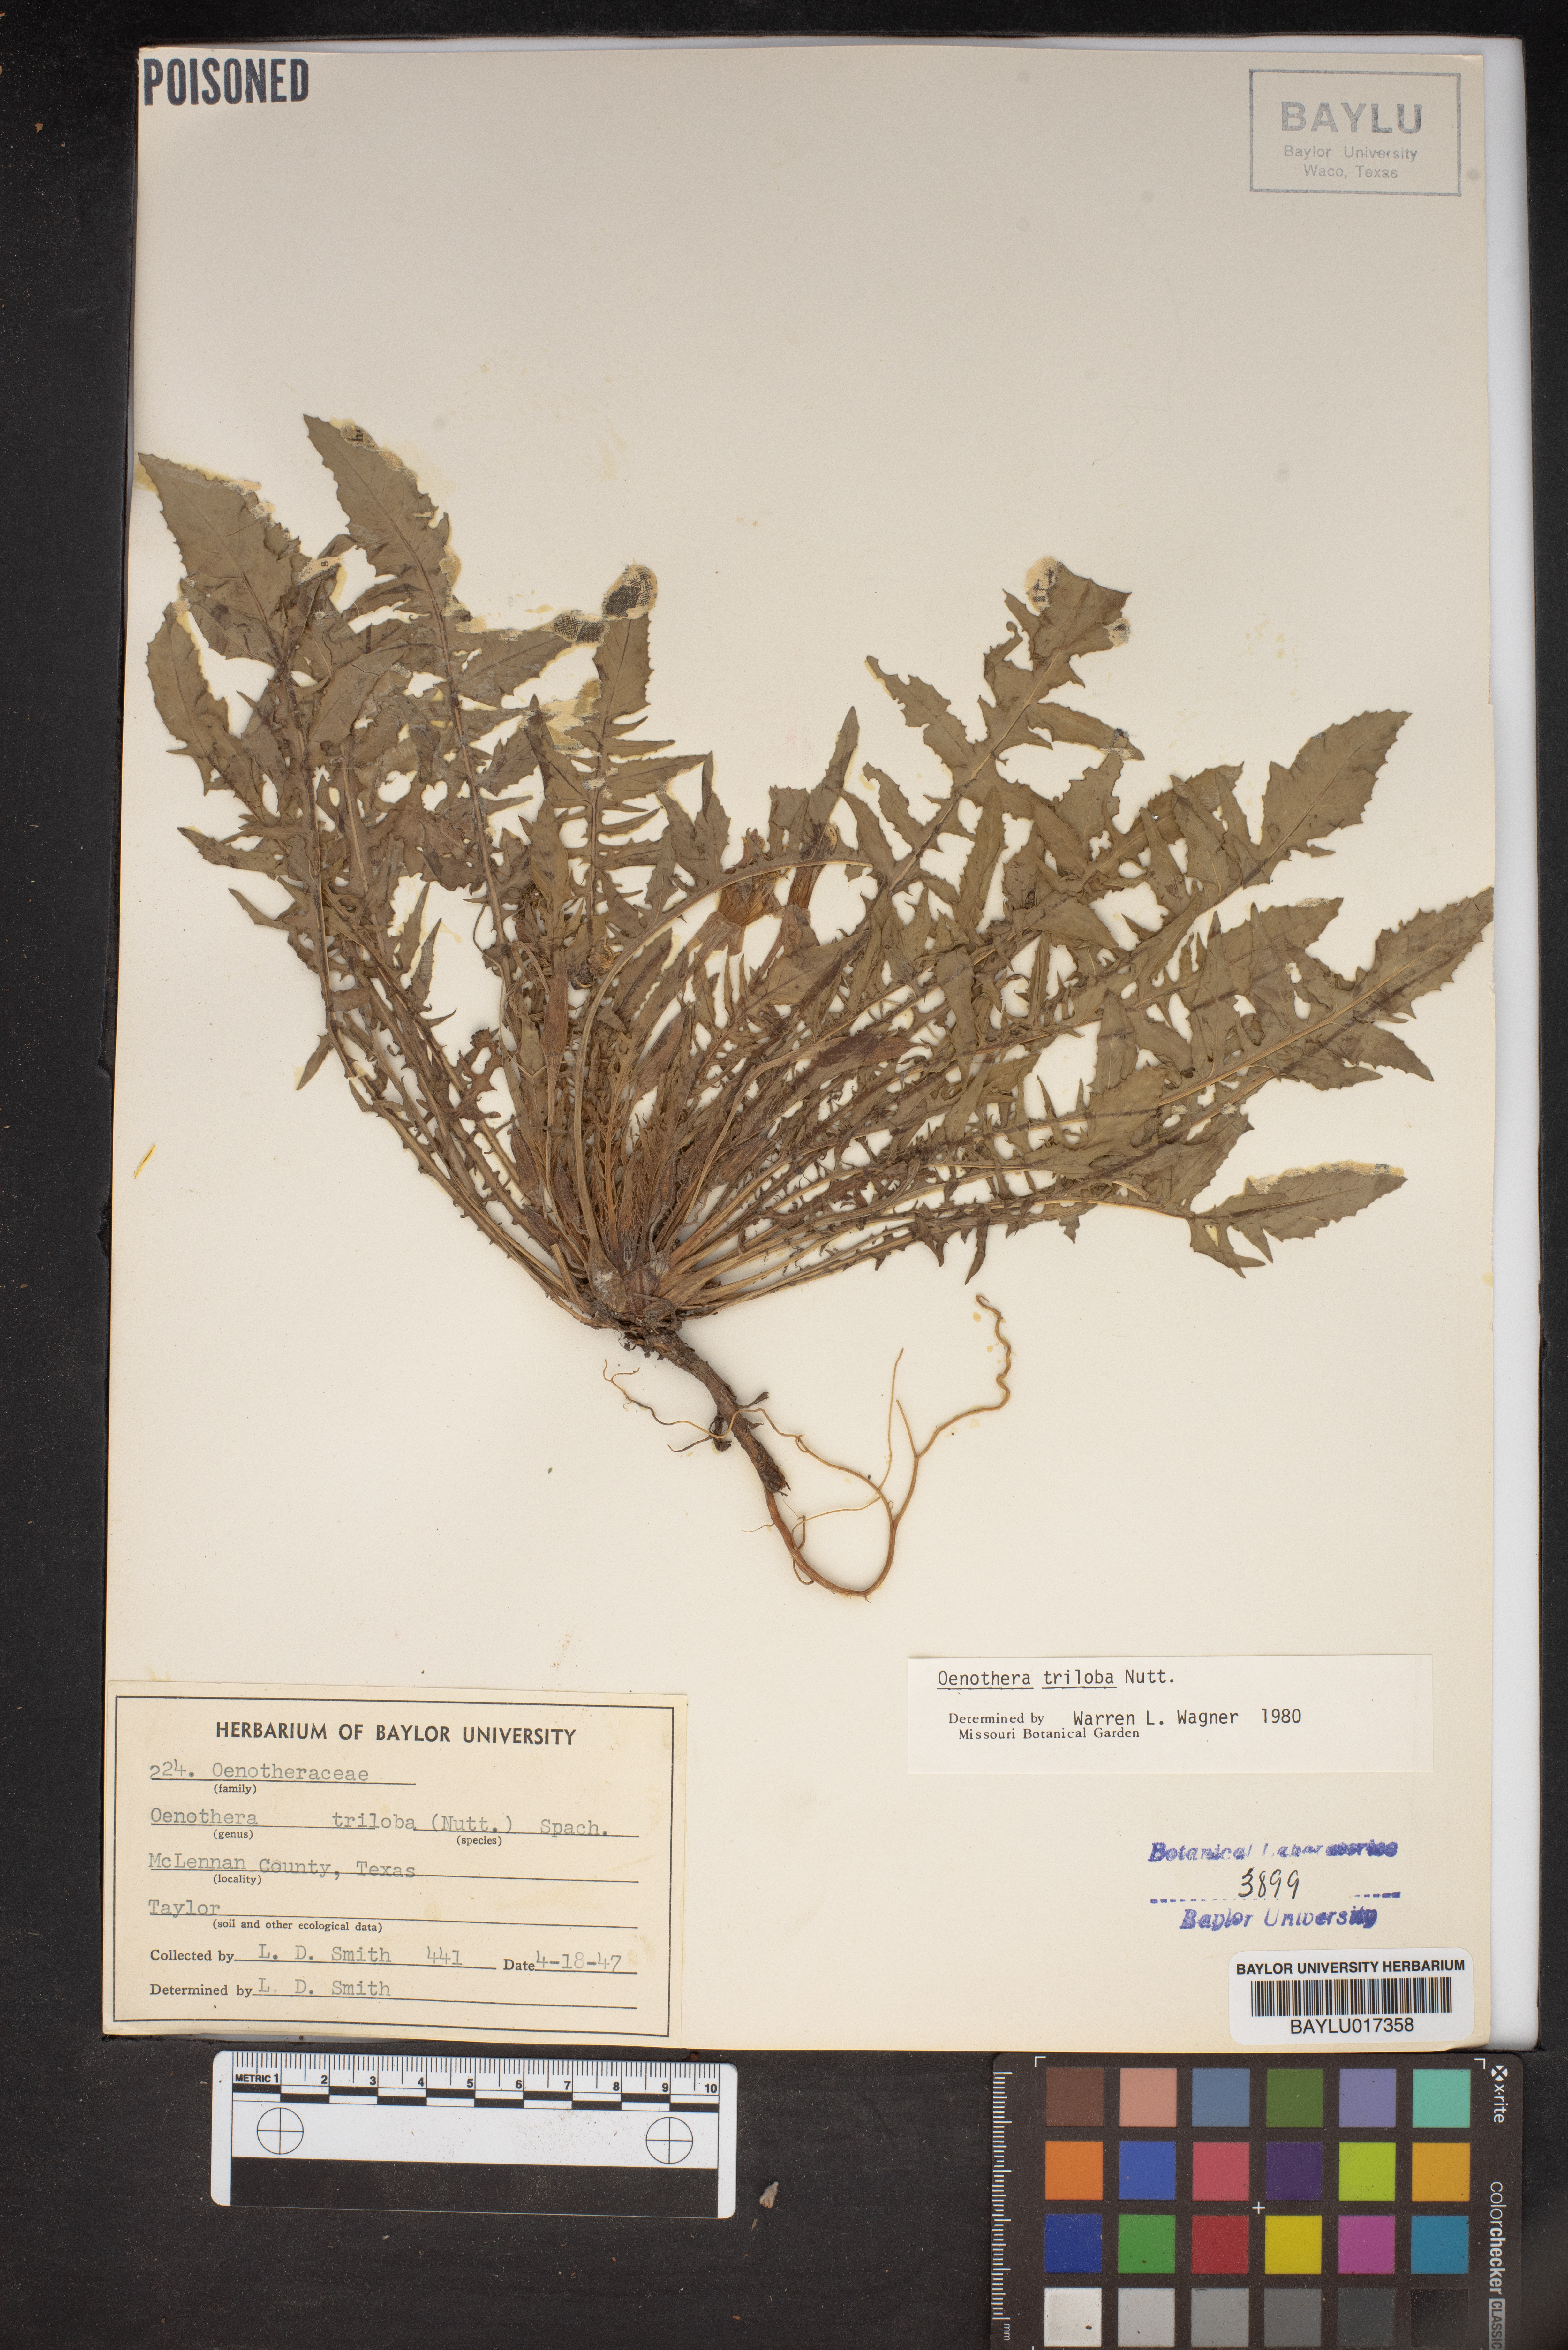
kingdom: Plantae
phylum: Tracheophyta
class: Magnoliopsida
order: Myrtales
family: Onagraceae
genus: Oenothera
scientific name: Oenothera triloba
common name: Sessile evening-primrose
